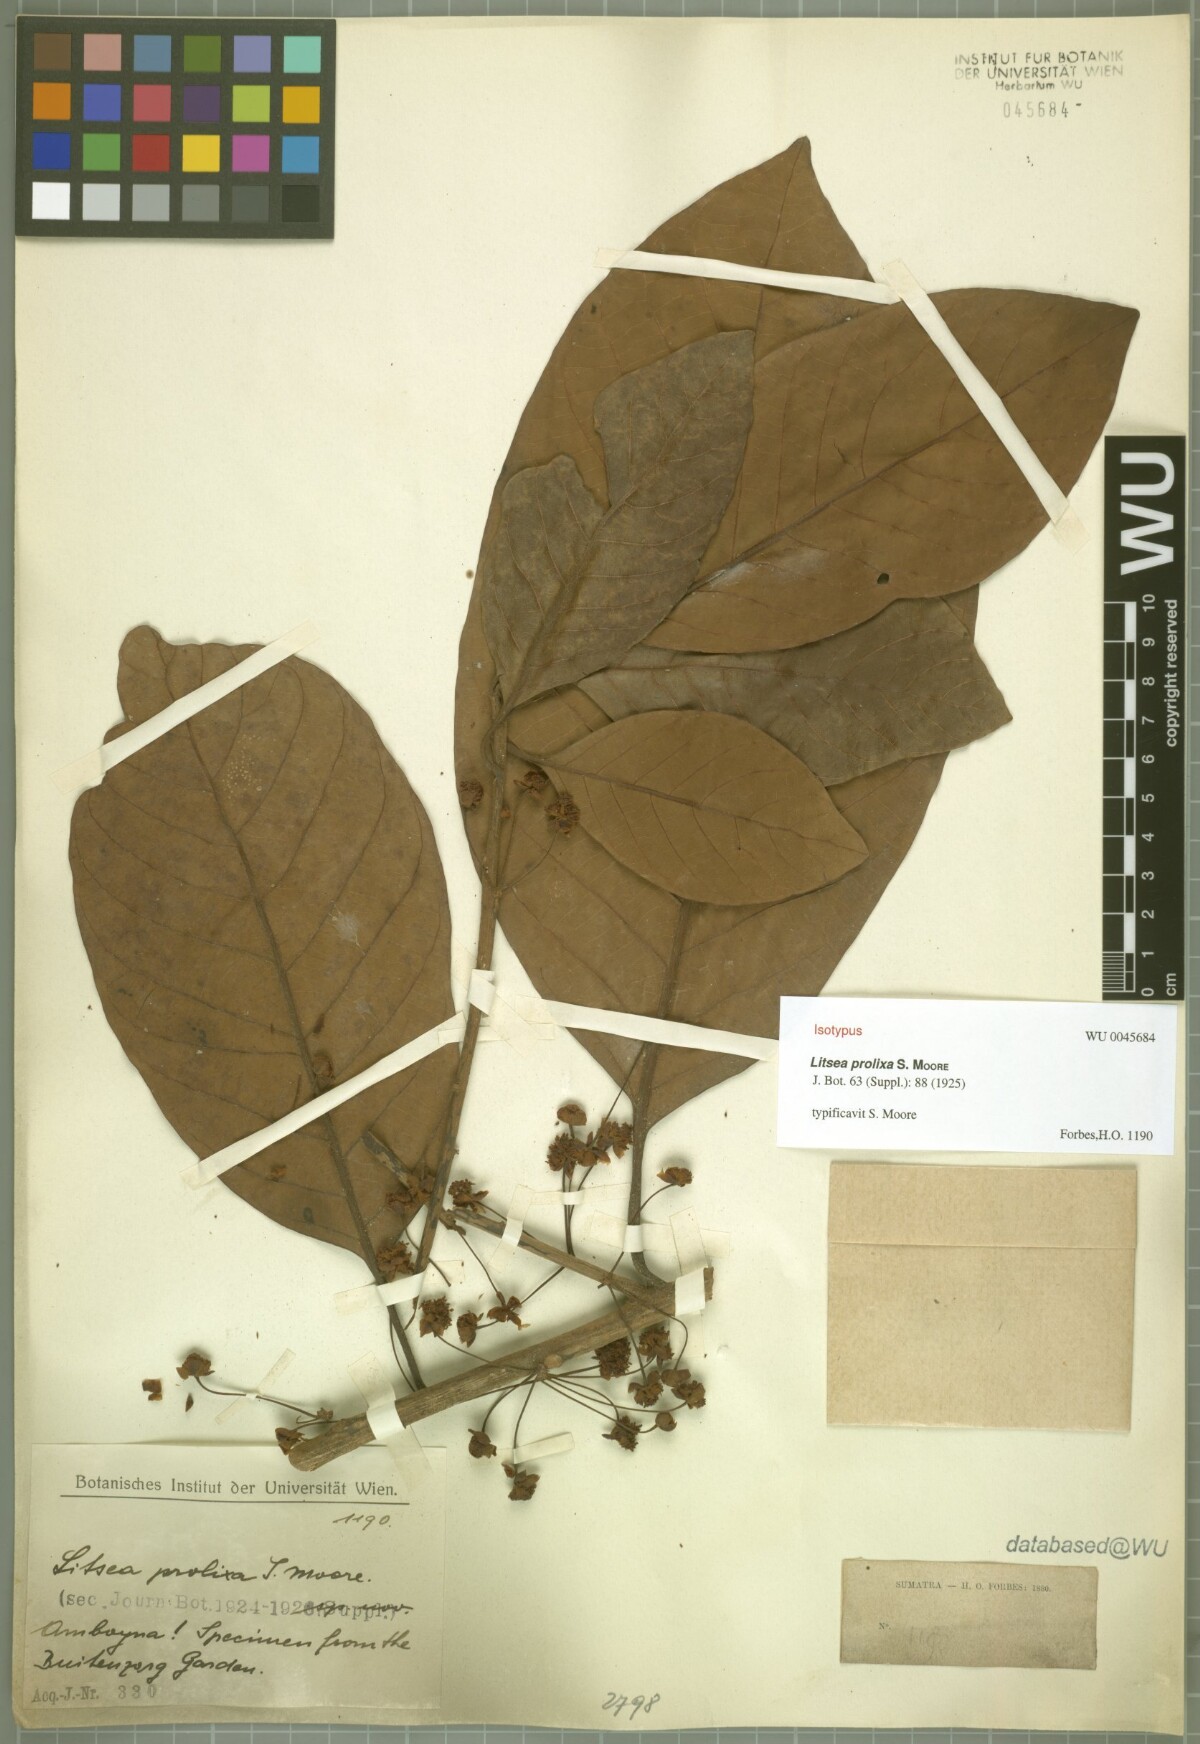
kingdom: Plantae
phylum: Tracheophyta
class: Magnoliopsida
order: Laurales
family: Lauraceae
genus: Litsea
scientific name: Litsea prolixa
